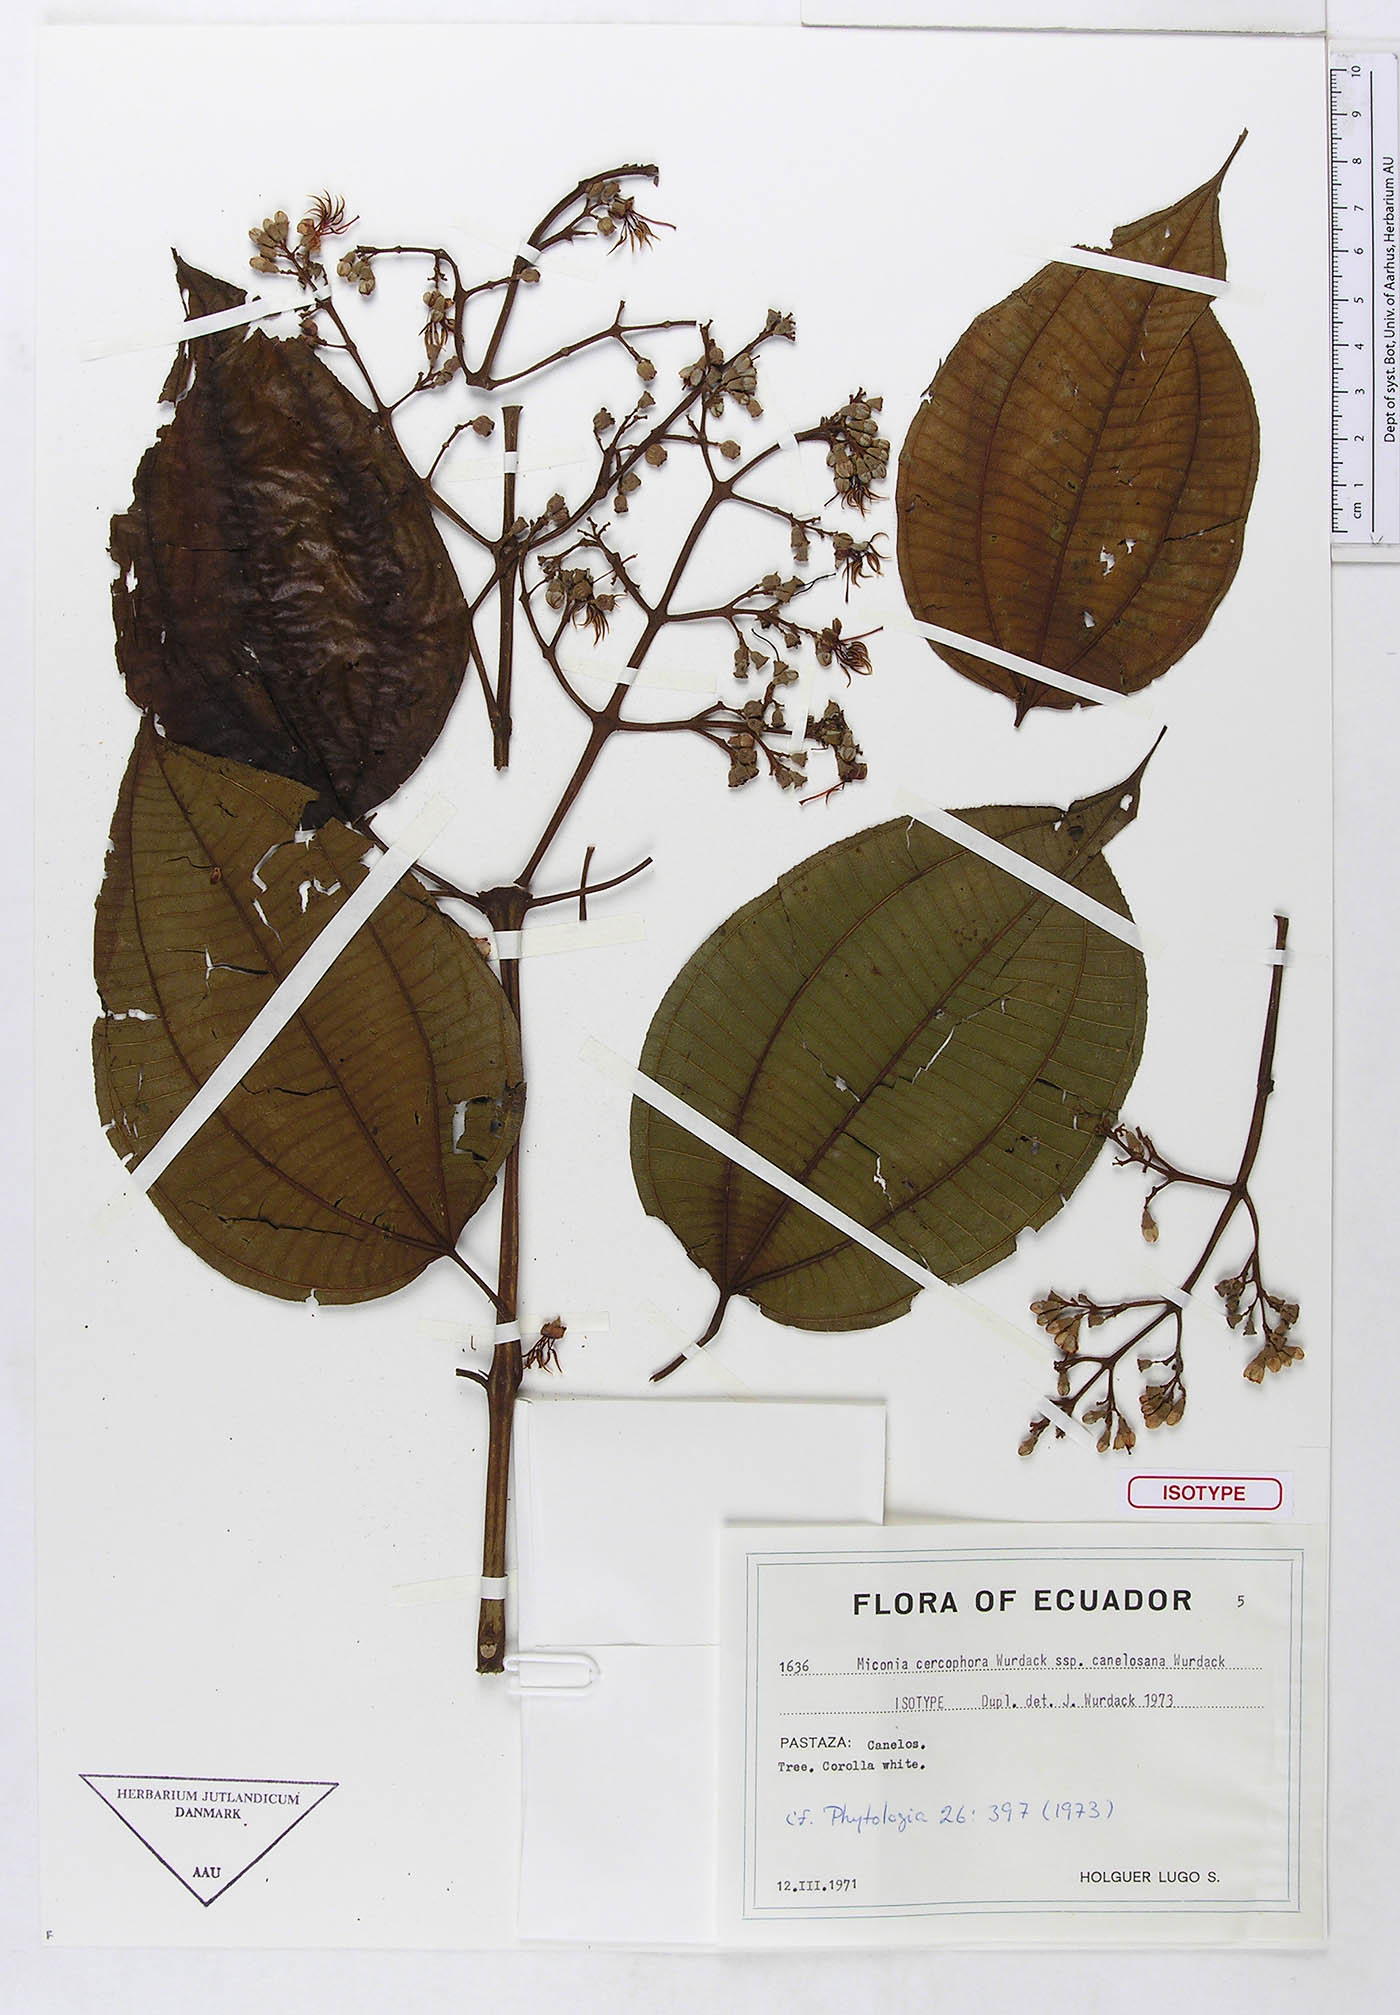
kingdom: Plantae
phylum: Tracheophyta
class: Magnoliopsida
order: Myrtales
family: Melastomataceae
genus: Miconia
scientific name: Miconia cercophora
